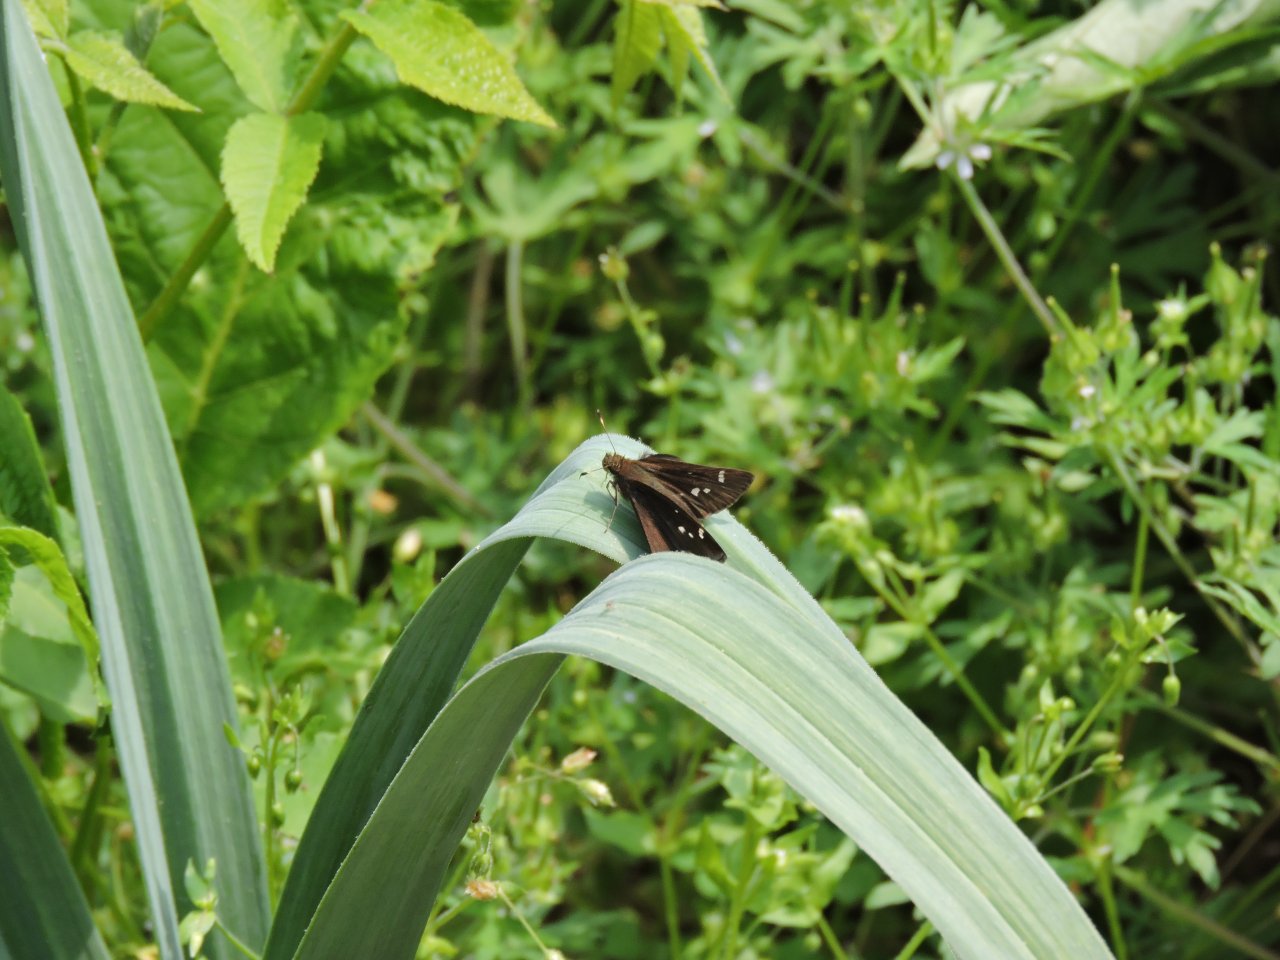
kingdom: Animalia
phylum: Arthropoda
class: Insecta
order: Lepidoptera
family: Hesperiidae
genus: Lerema
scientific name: Lerema accius
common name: Clouded Skipper
